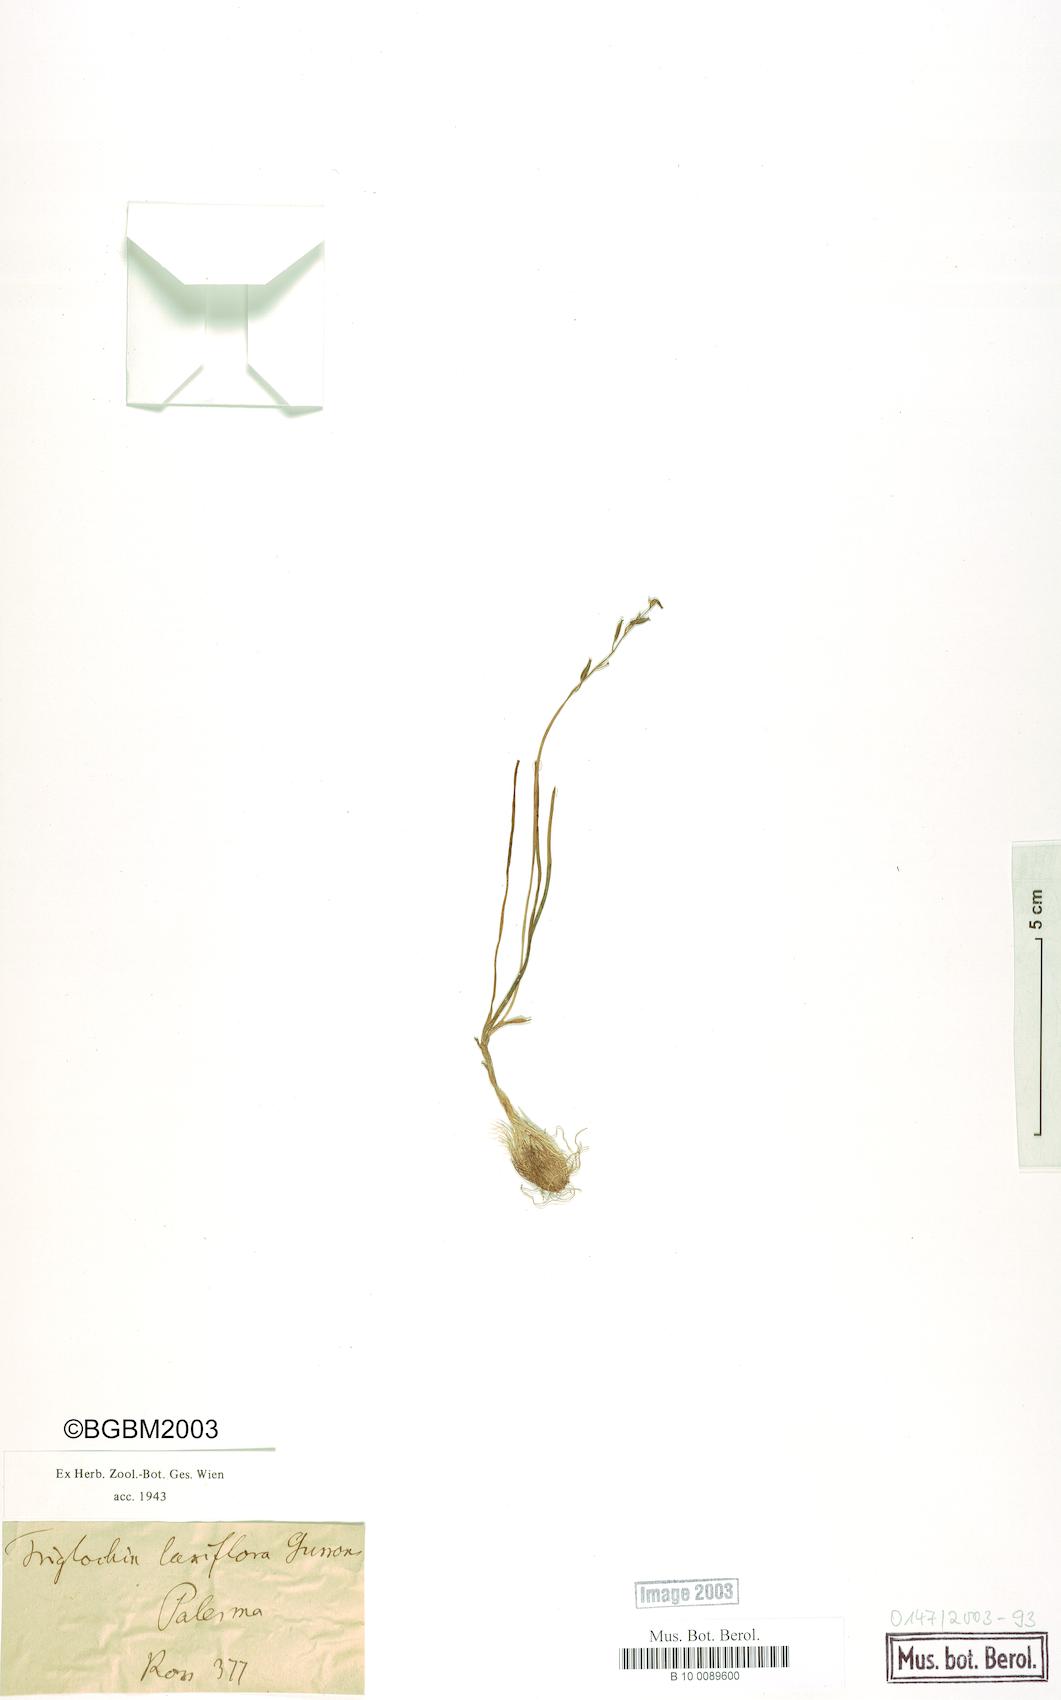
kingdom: Plantae
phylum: Tracheophyta
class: Liliopsida
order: Alismatales
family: Juncaginaceae
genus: Triglochin
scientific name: Triglochin laxiflora
